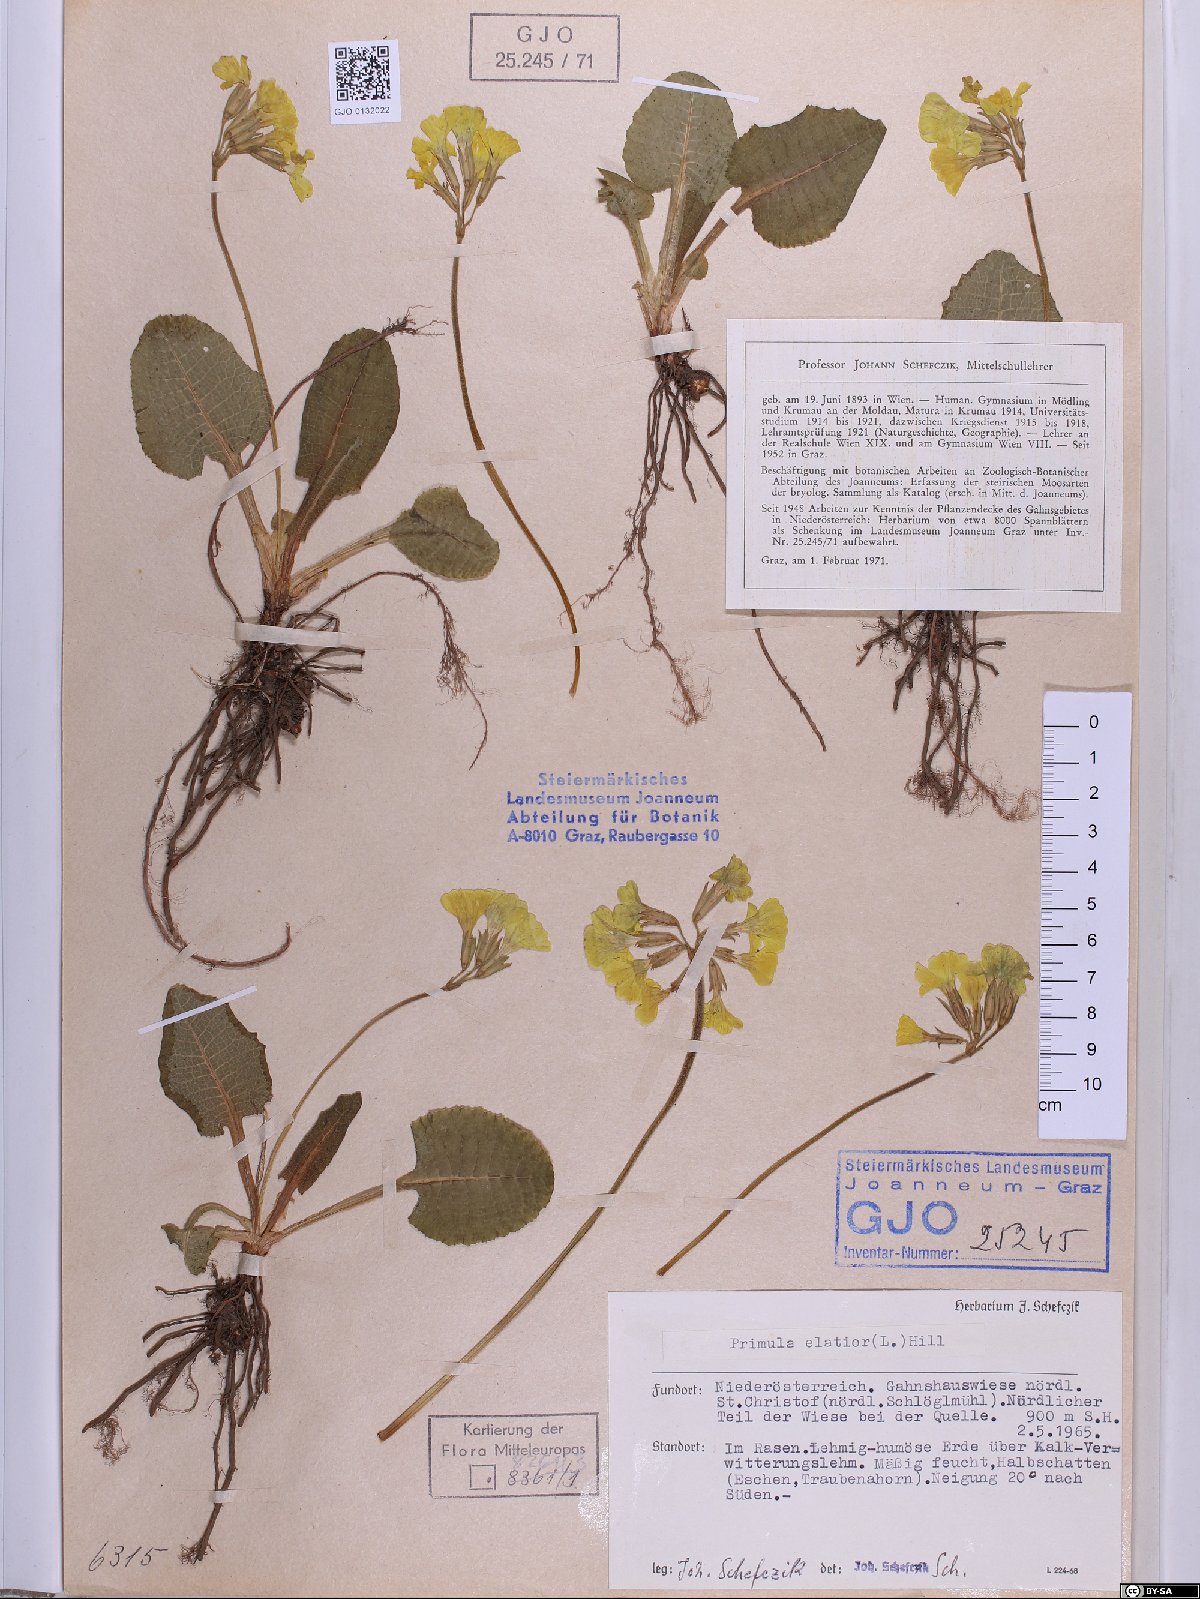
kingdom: Plantae
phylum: Tracheophyta
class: Magnoliopsida
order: Ericales
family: Primulaceae
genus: Primula
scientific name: Primula elatior
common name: Oxlip
